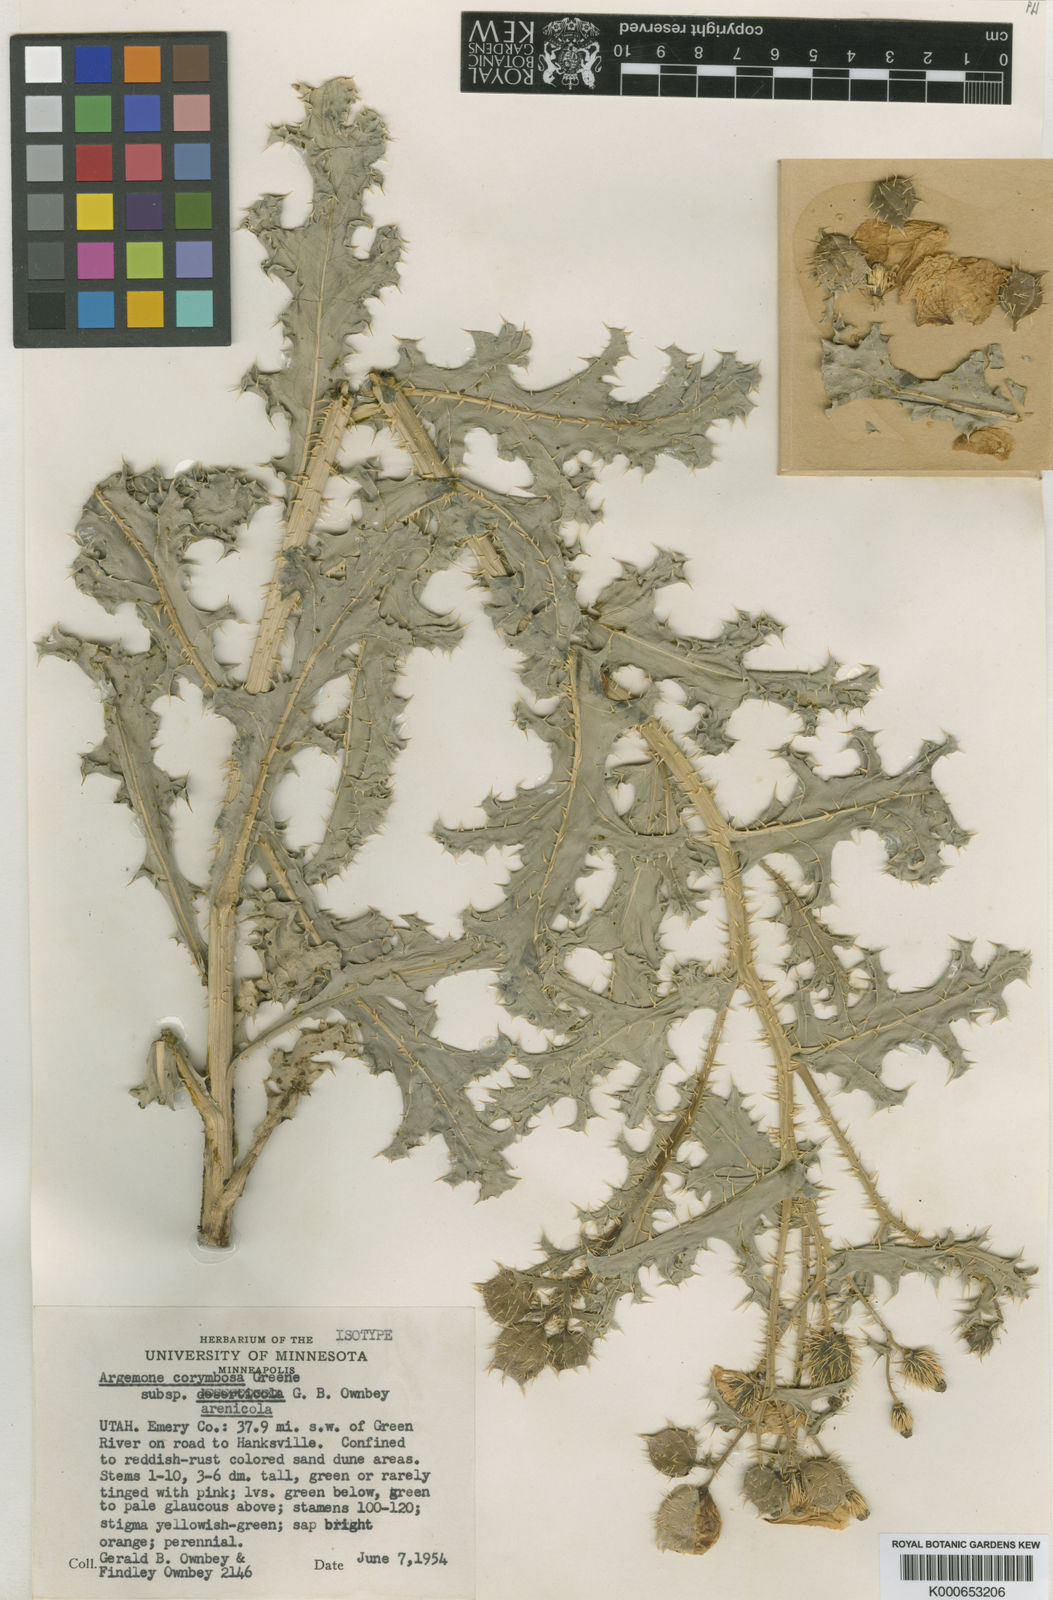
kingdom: Plantae
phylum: Tracheophyta
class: Magnoliopsida
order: Ranunculales
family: Papaveraceae
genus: Argemone
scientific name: Argemone corymbosa
